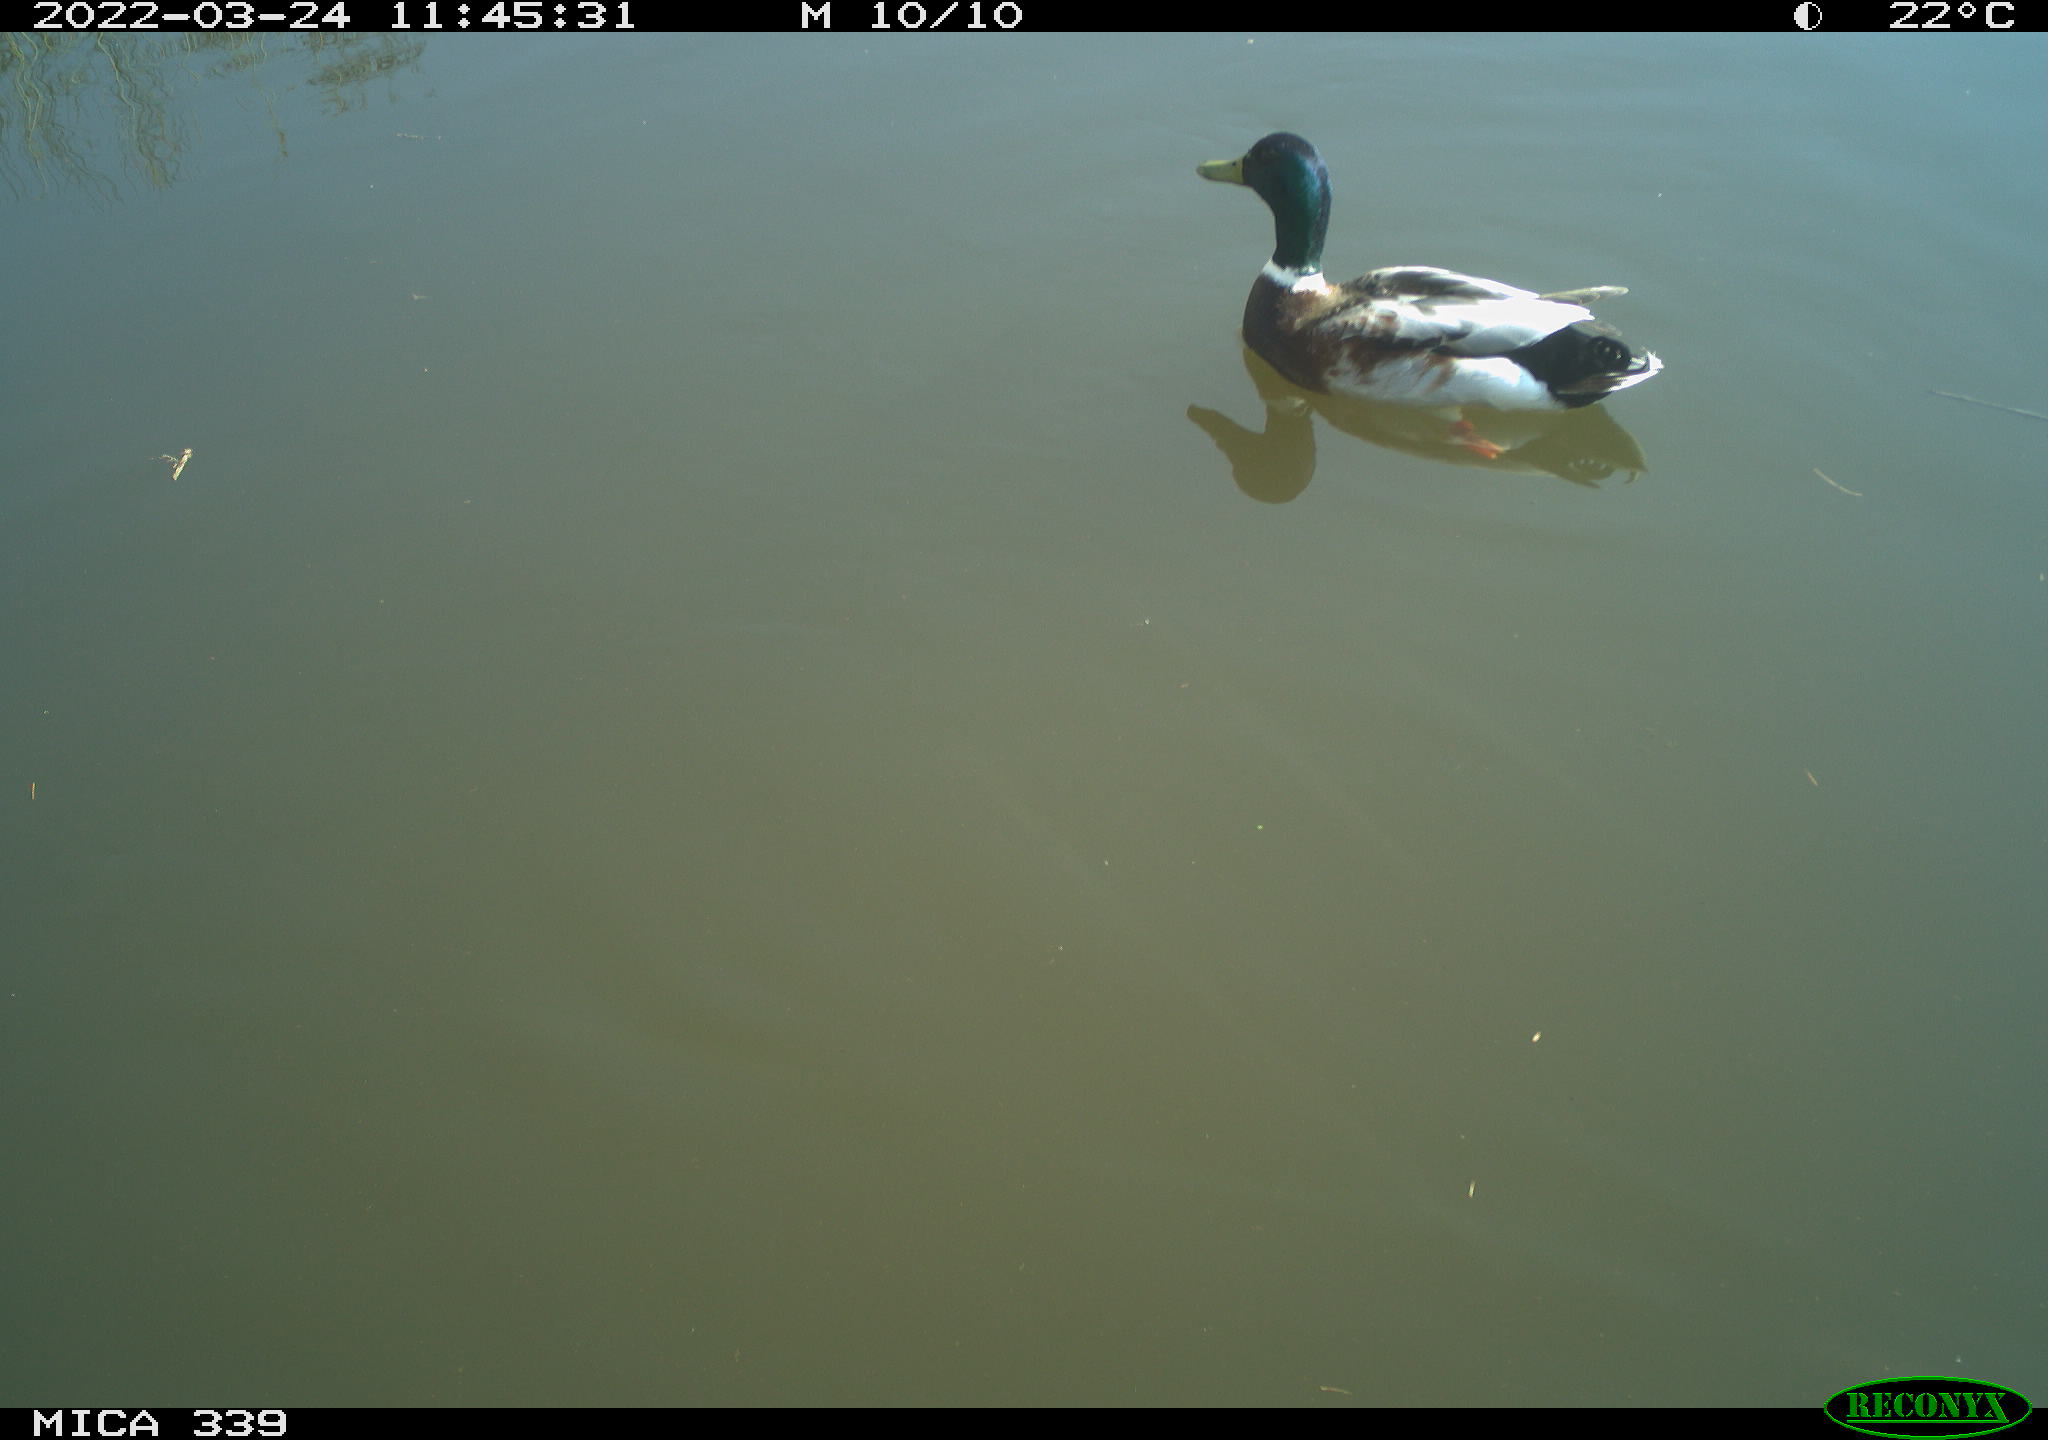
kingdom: Animalia
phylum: Chordata
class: Aves
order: Anseriformes
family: Anatidae
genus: Anas
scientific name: Anas platyrhynchos
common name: Mallard
